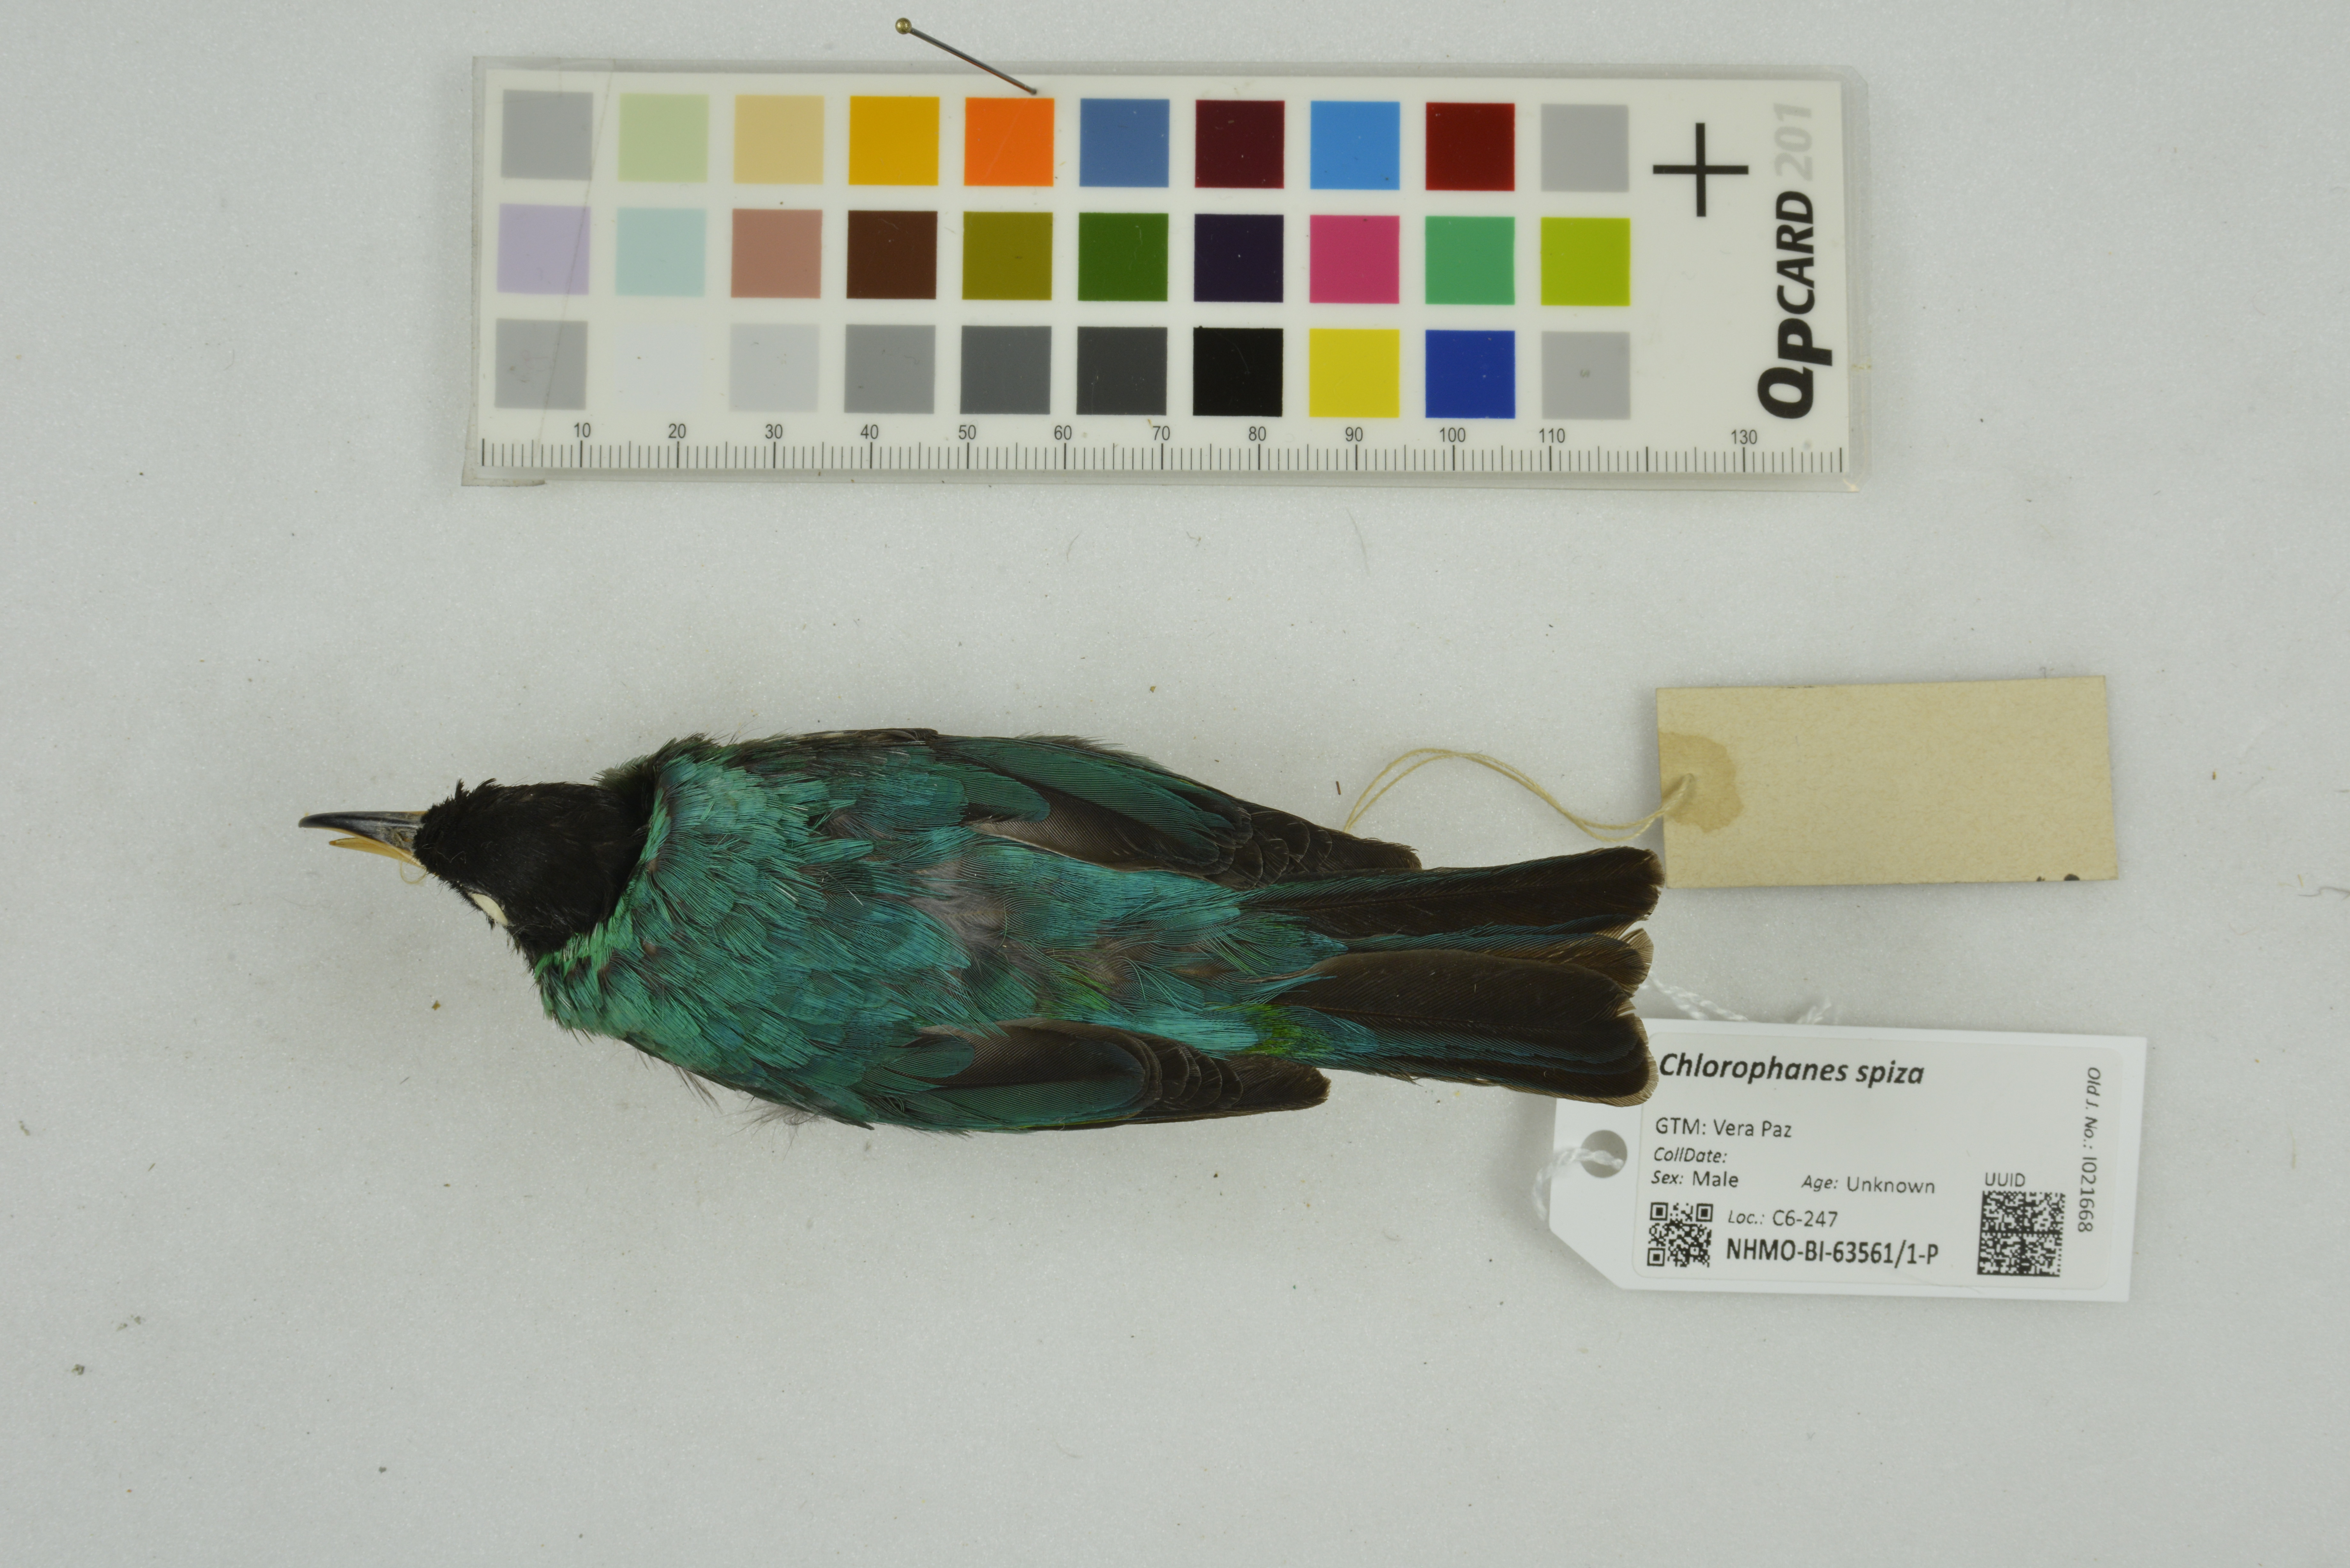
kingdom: Animalia
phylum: Chordata
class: Aves
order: Passeriformes
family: Thraupidae
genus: Chlorophanes
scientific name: Chlorophanes spiza
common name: Green honeycreeper
